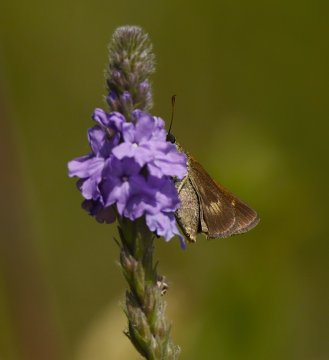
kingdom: Animalia
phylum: Arthropoda
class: Insecta
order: Lepidoptera
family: Hesperiidae
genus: Polites
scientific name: Polites egeremet
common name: Northern Broken-Dash
